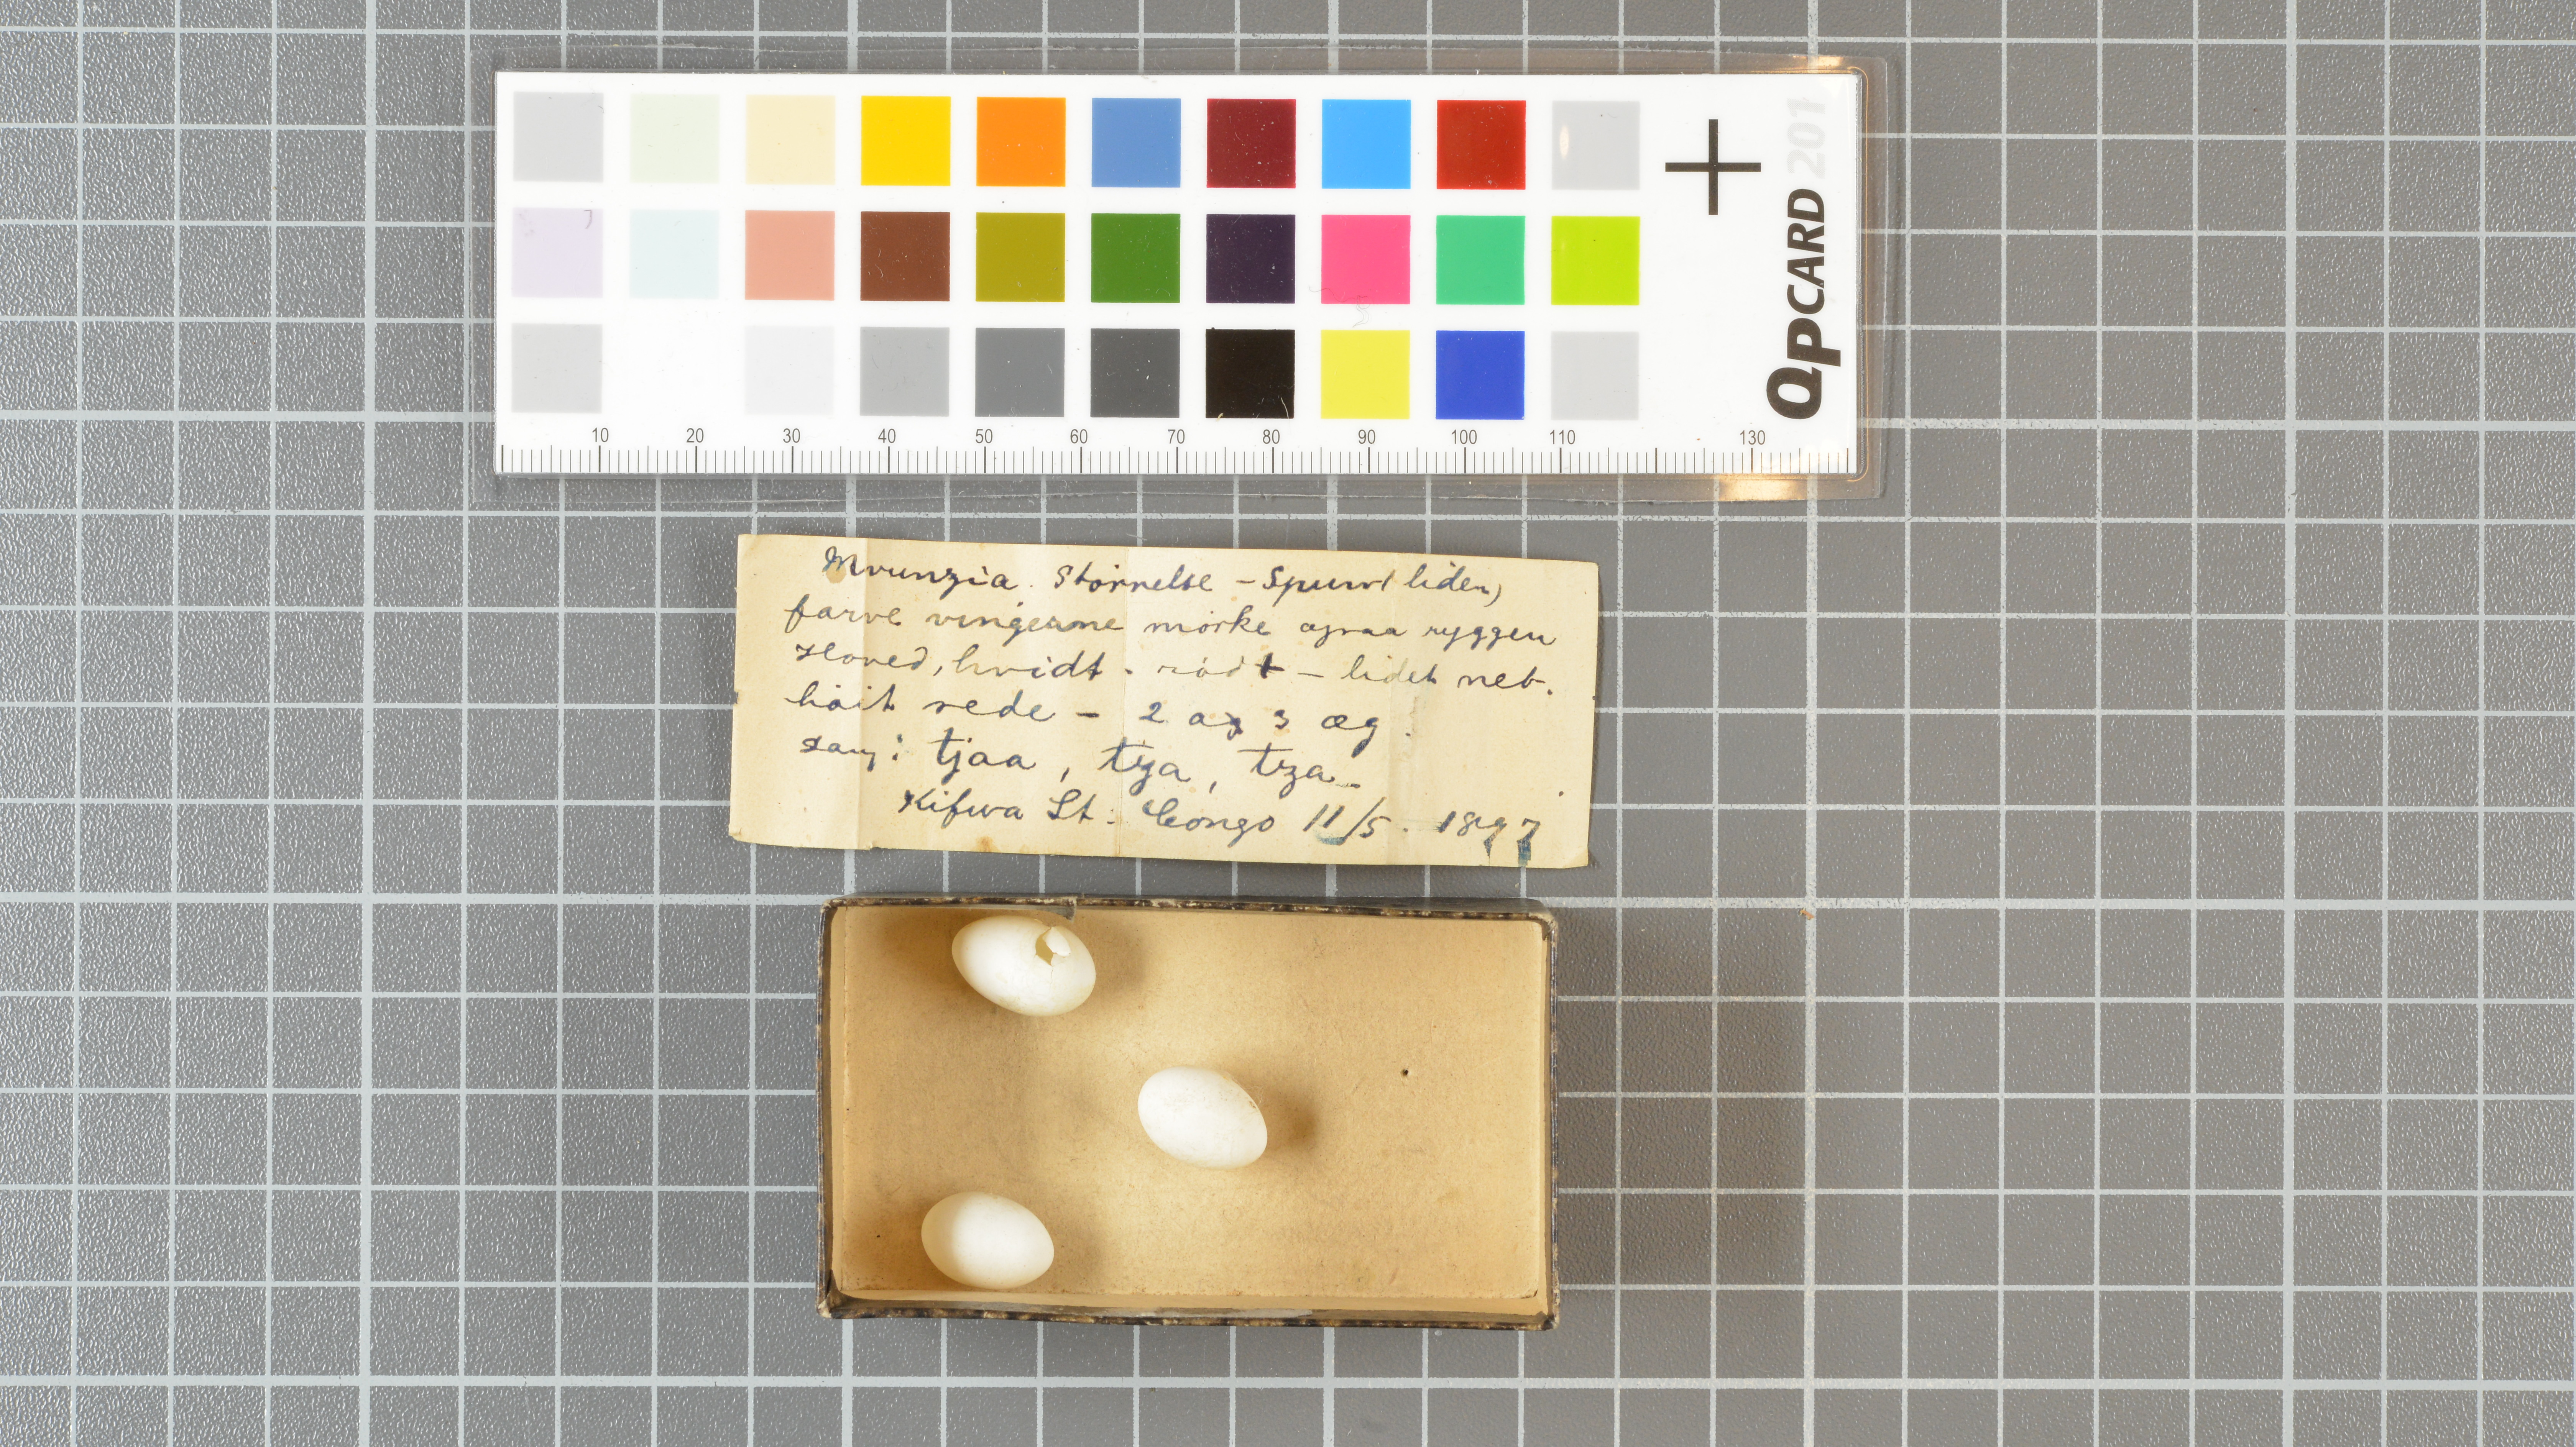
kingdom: Animalia
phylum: Chordata
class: Aves
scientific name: Aves
